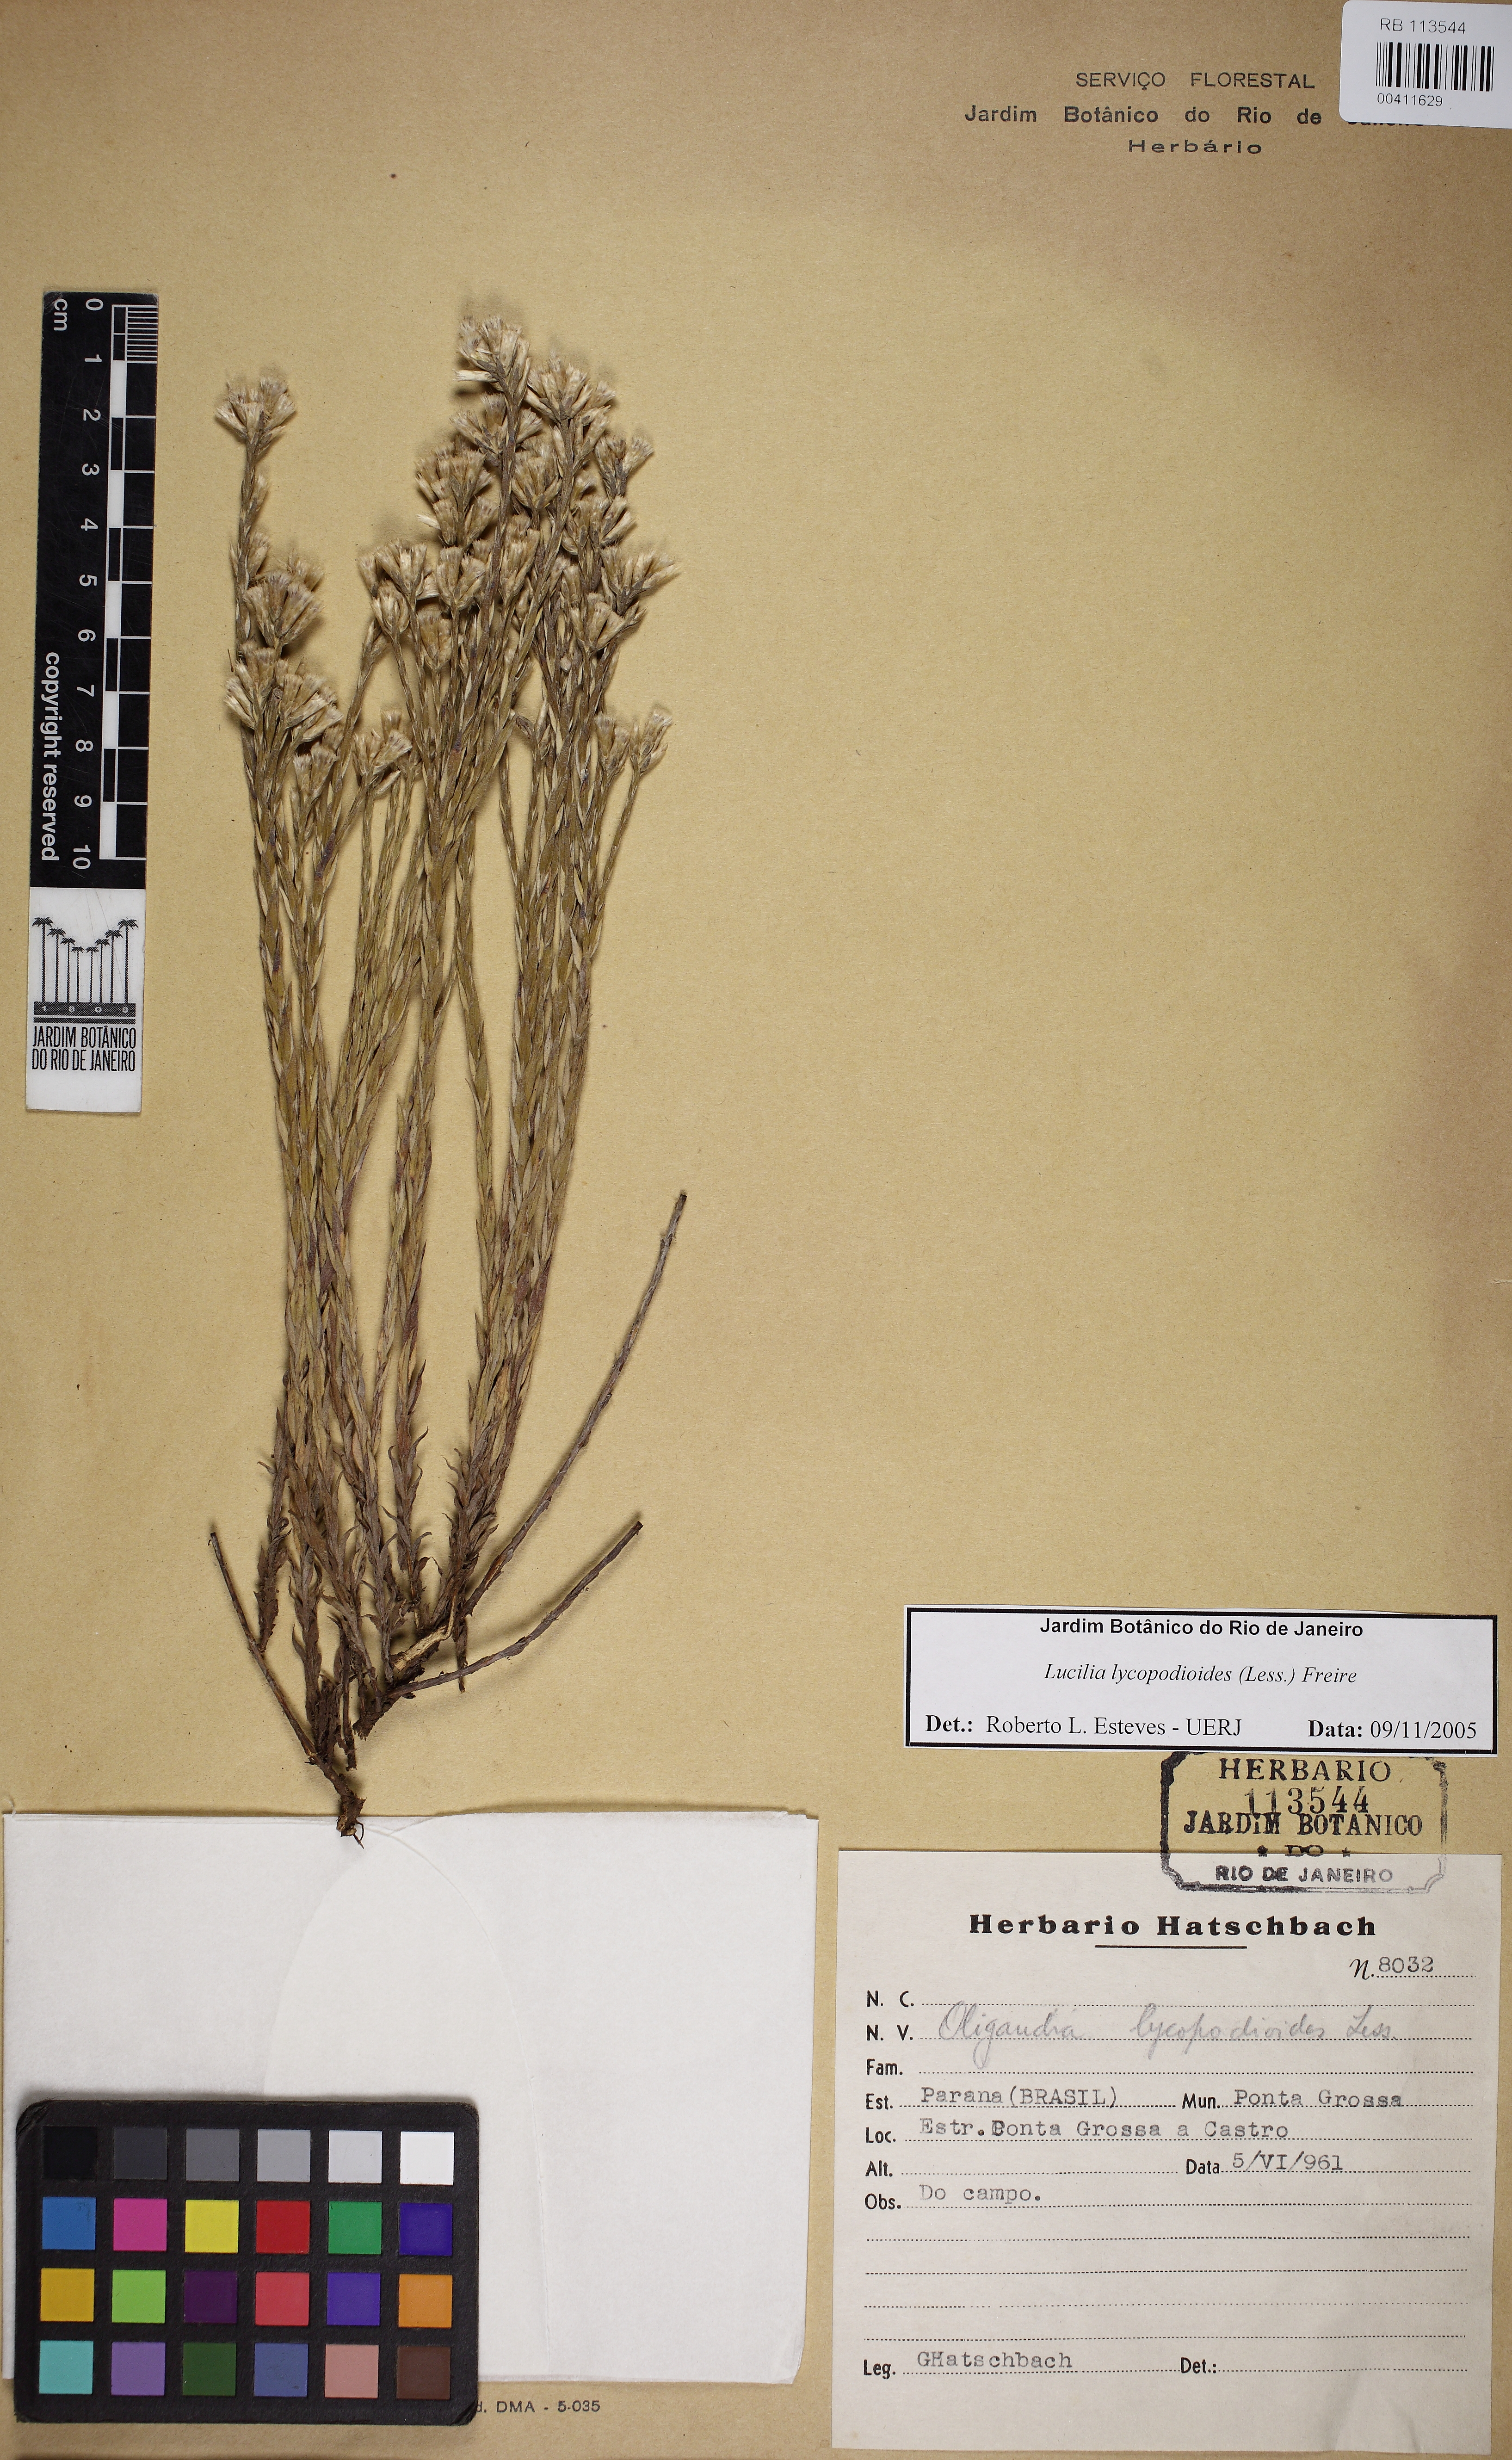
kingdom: Plantae
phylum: Tracheophyta
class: Magnoliopsida
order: Asterales
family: Asteraceae
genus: Lucilia
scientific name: Lucilia lycopodioides
